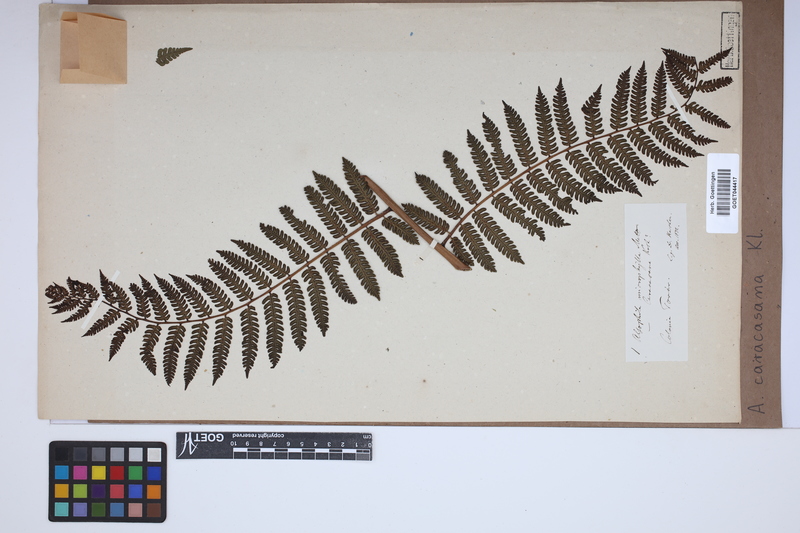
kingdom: Plantae
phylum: Tracheophyta
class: Polypodiopsida
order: Cyatheales
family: Cyatheaceae
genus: Cyathea
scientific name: Cyathea caracasana
